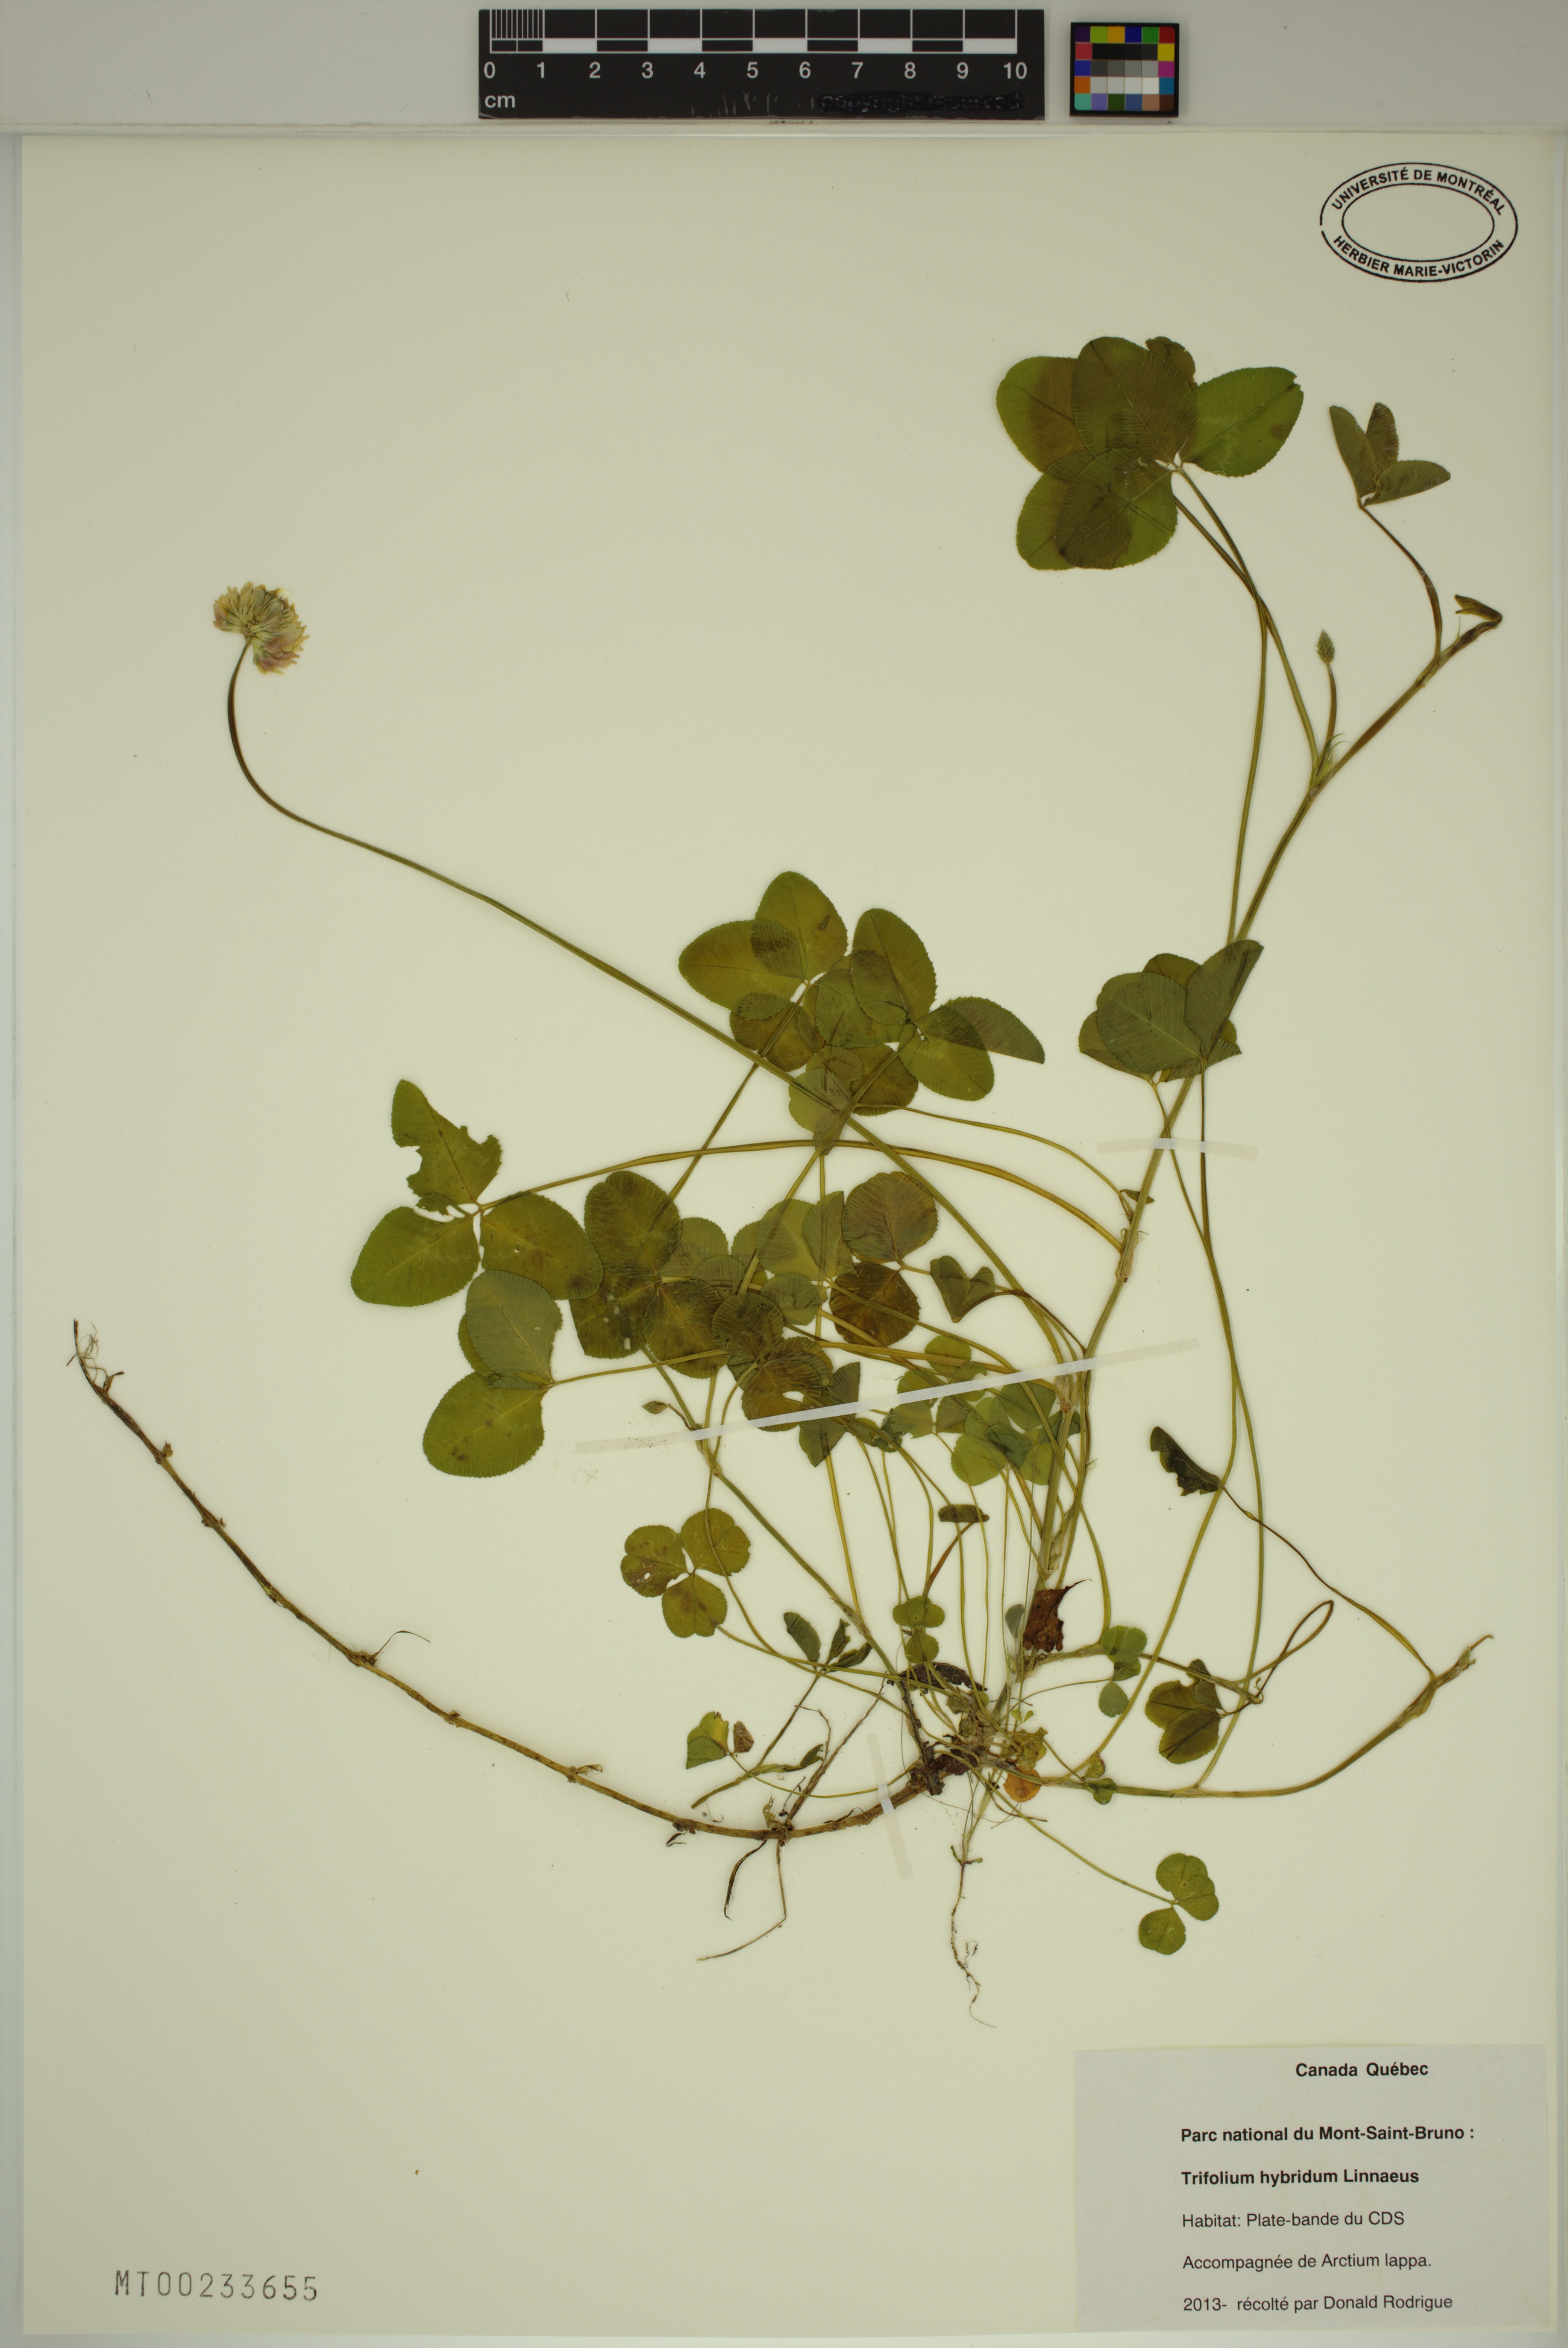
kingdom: Plantae
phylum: Tracheophyta
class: Magnoliopsida
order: Fabales
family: Fabaceae
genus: Trifolium
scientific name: Trifolium hybridum
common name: Alsike clover
